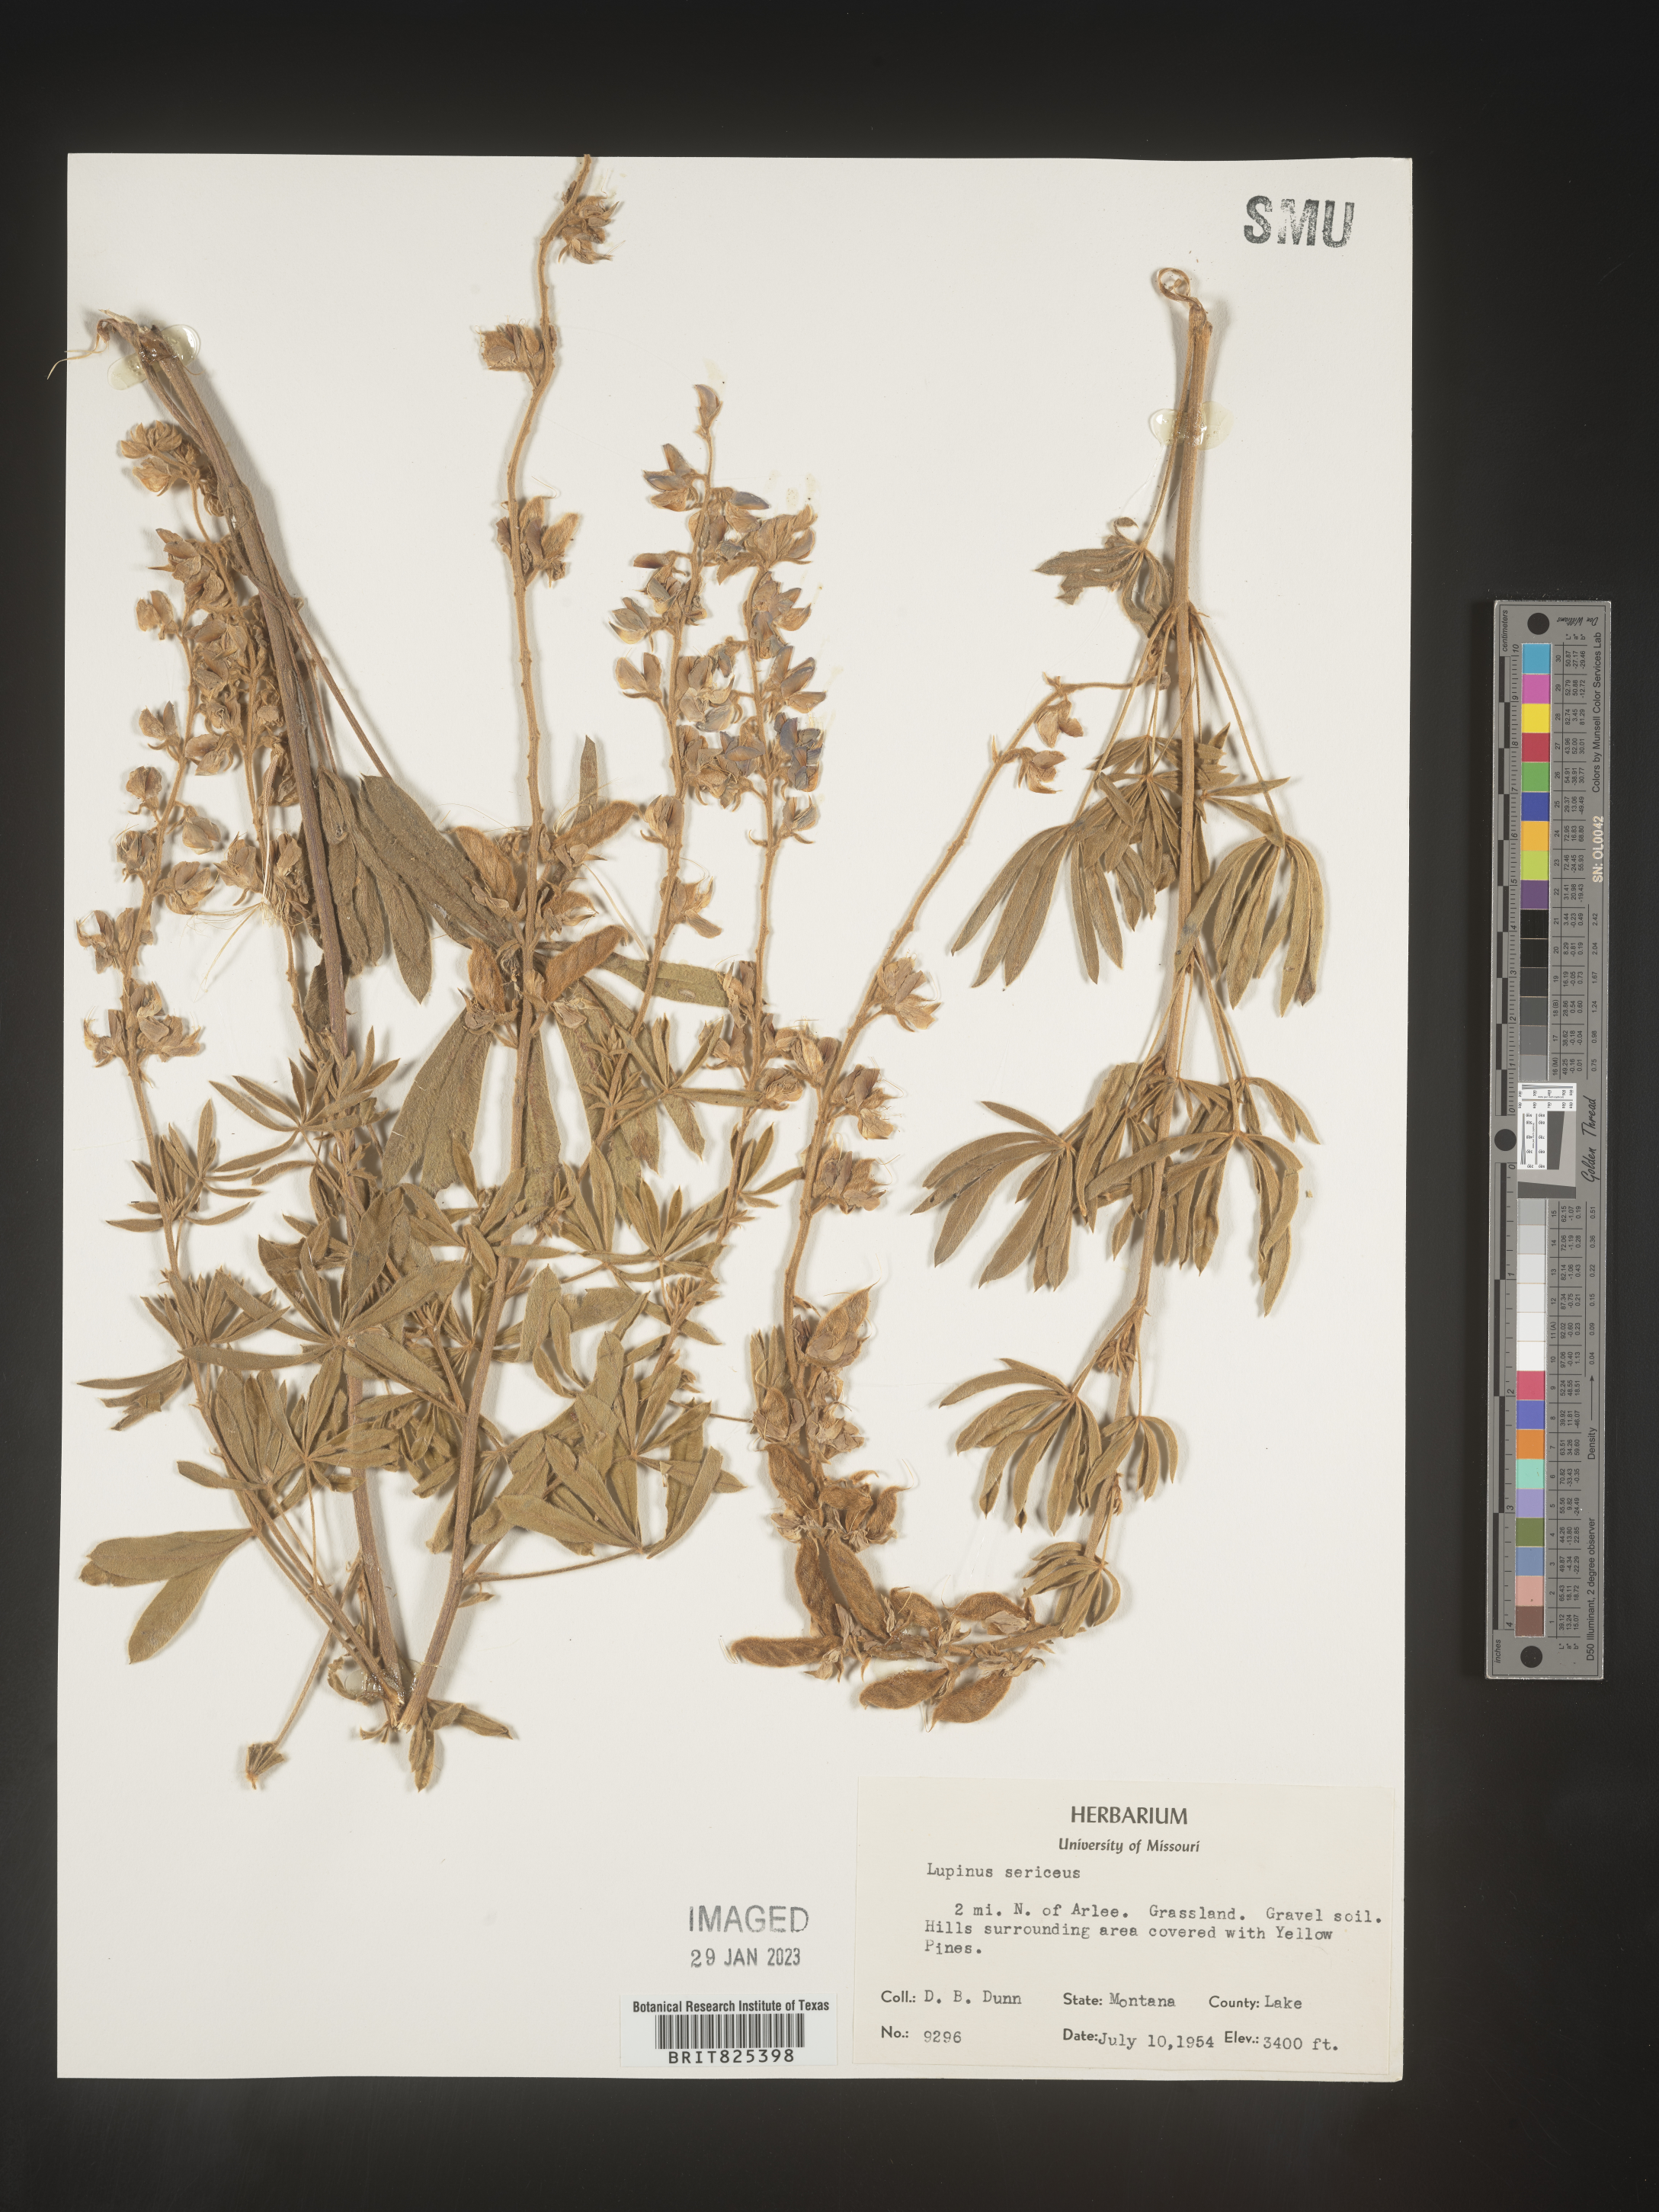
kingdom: Plantae
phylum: Tracheophyta
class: Magnoliopsida
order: Fabales
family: Fabaceae
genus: Lupinus
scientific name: Lupinus sericeus
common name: Silky lupine
